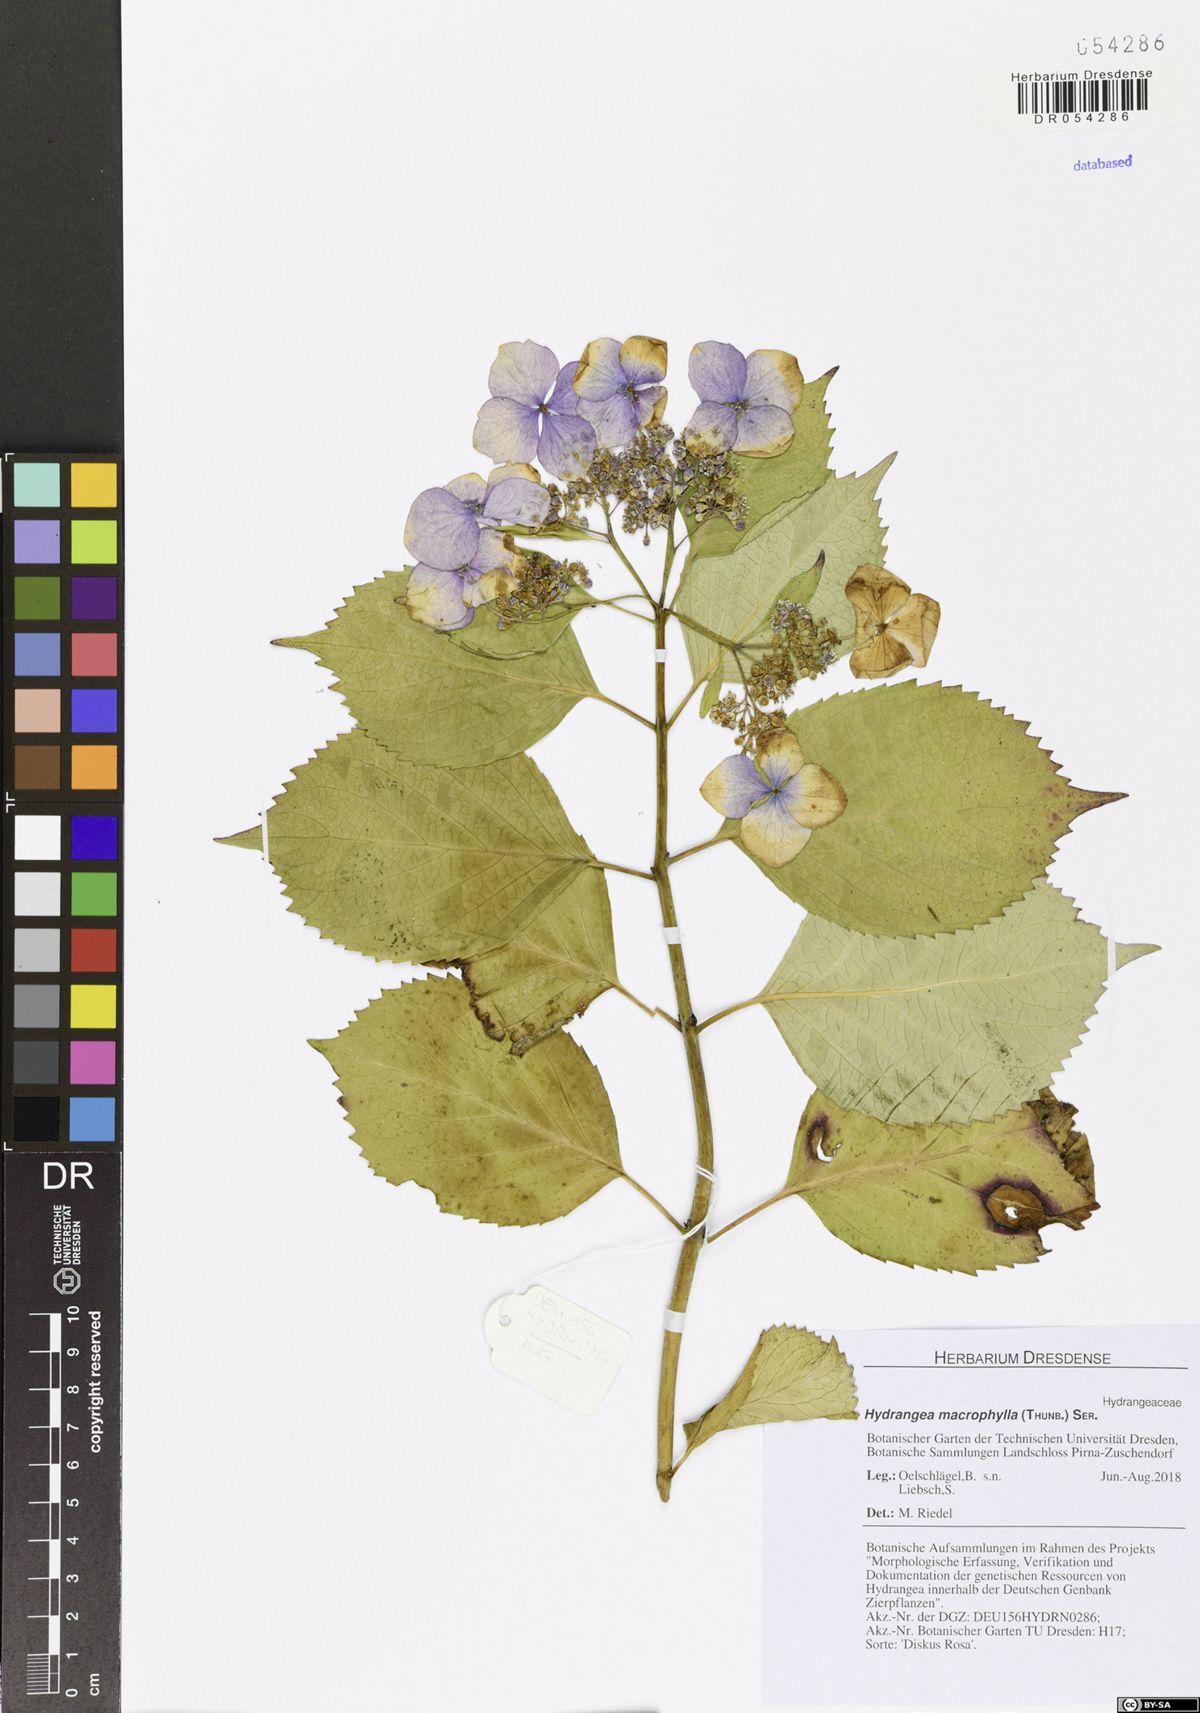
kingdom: Plantae
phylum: Tracheophyta
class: Magnoliopsida
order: Cornales
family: Hydrangeaceae
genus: Hydrangea
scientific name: Hydrangea macrophylla
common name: Hydrangea
